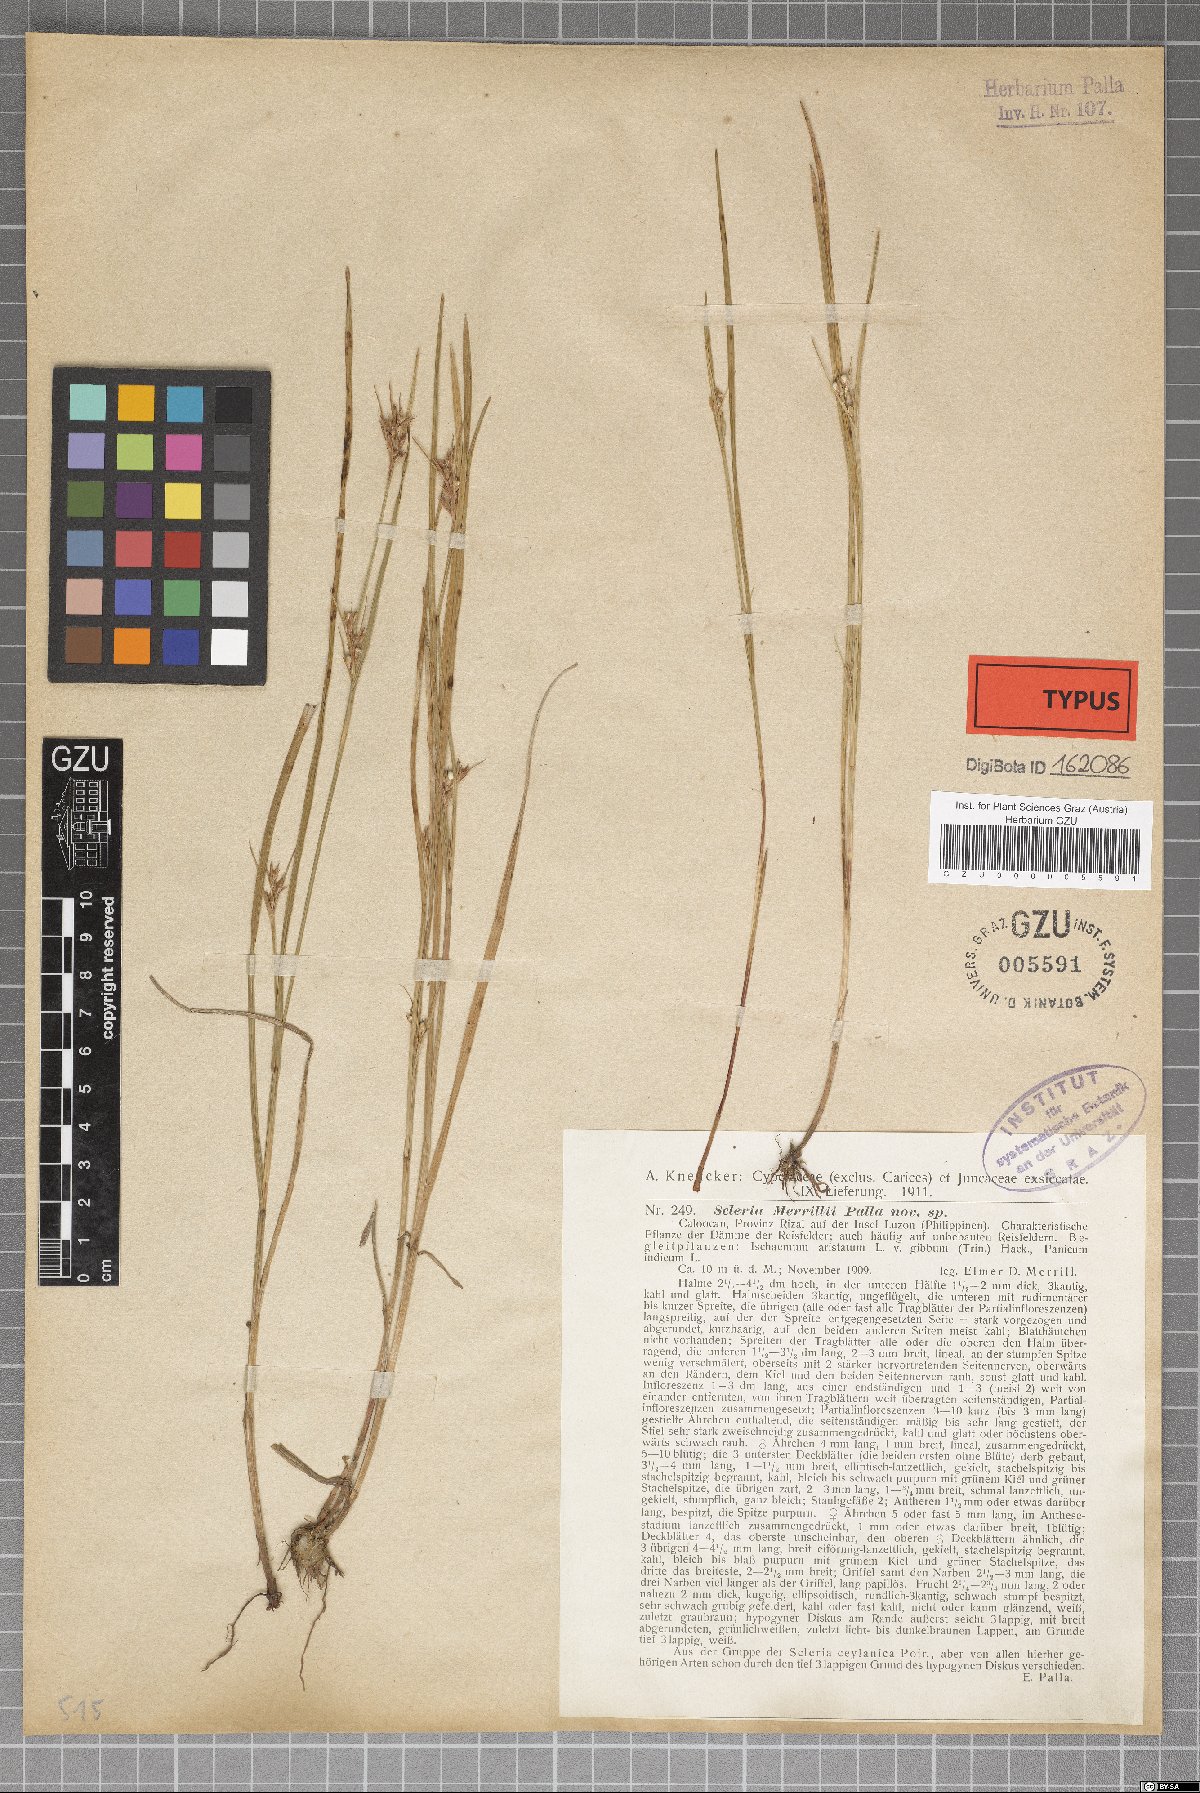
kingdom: Plantae
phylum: Tracheophyta
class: Liliopsida
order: Poales
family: Cyperaceae
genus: Scleria
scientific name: Scleria novae-hollandiae
